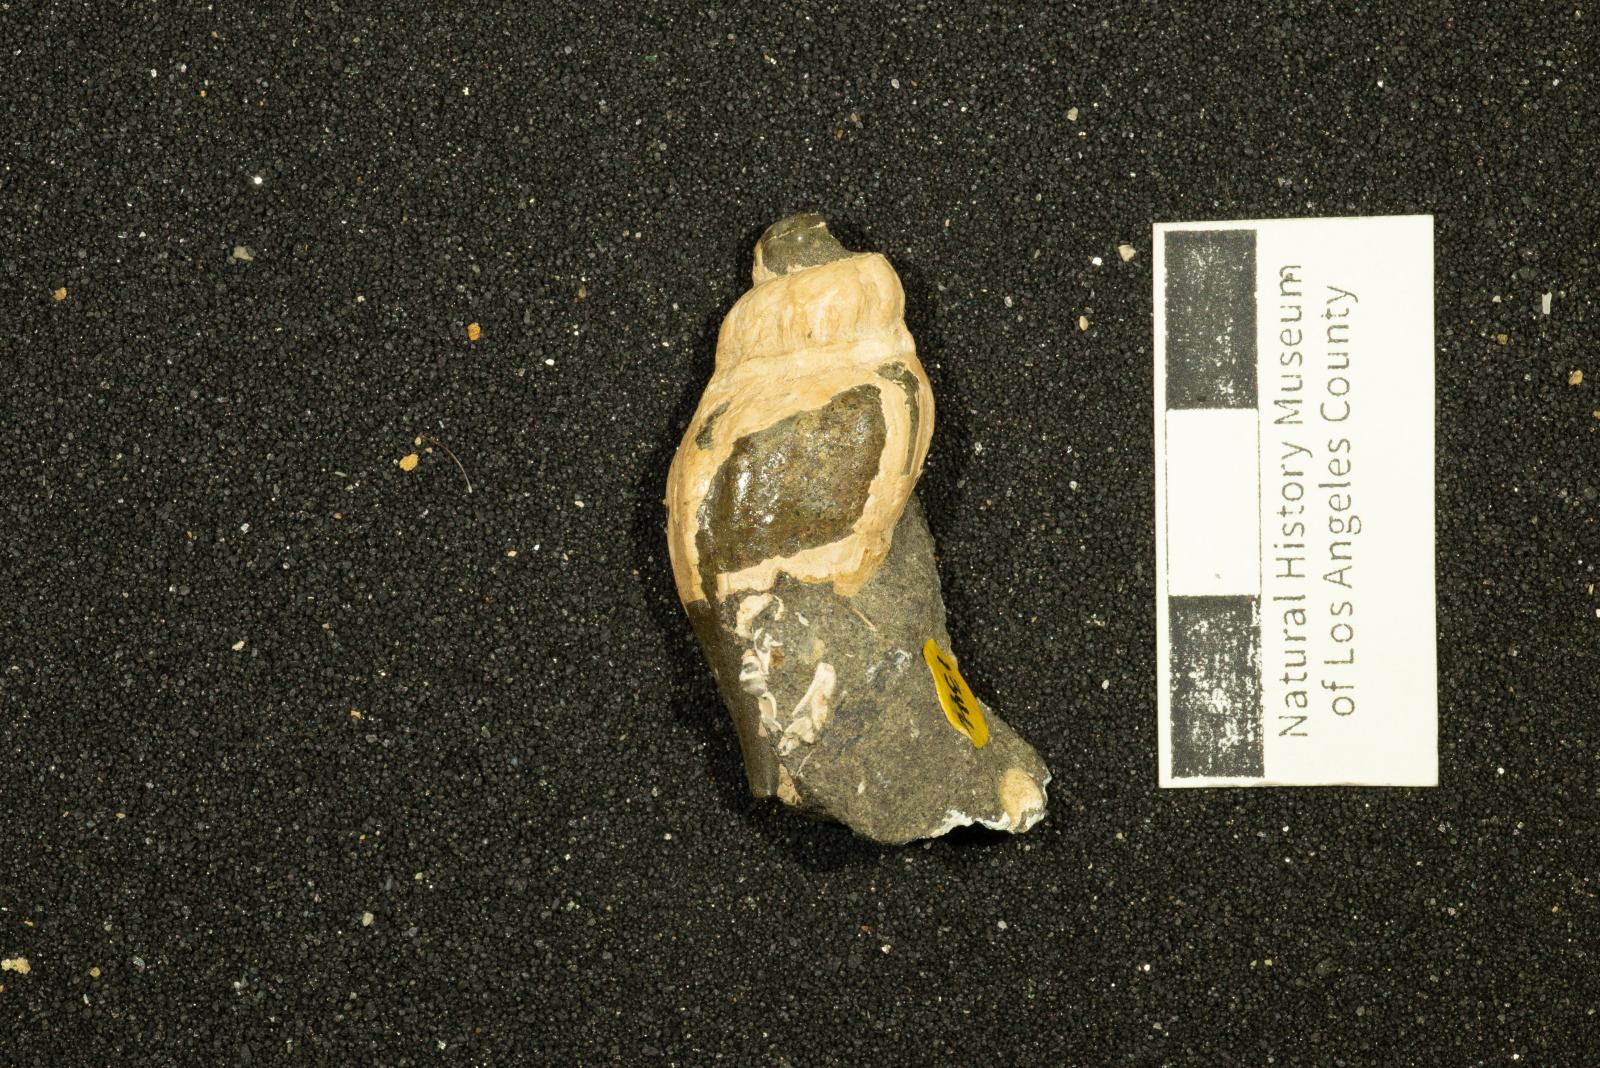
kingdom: Animalia
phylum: Mollusca
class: Gastropoda
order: Neogastropoda
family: Pholidotomidae
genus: Drilluta
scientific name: Drilluta Volutoderma jacksonensis
